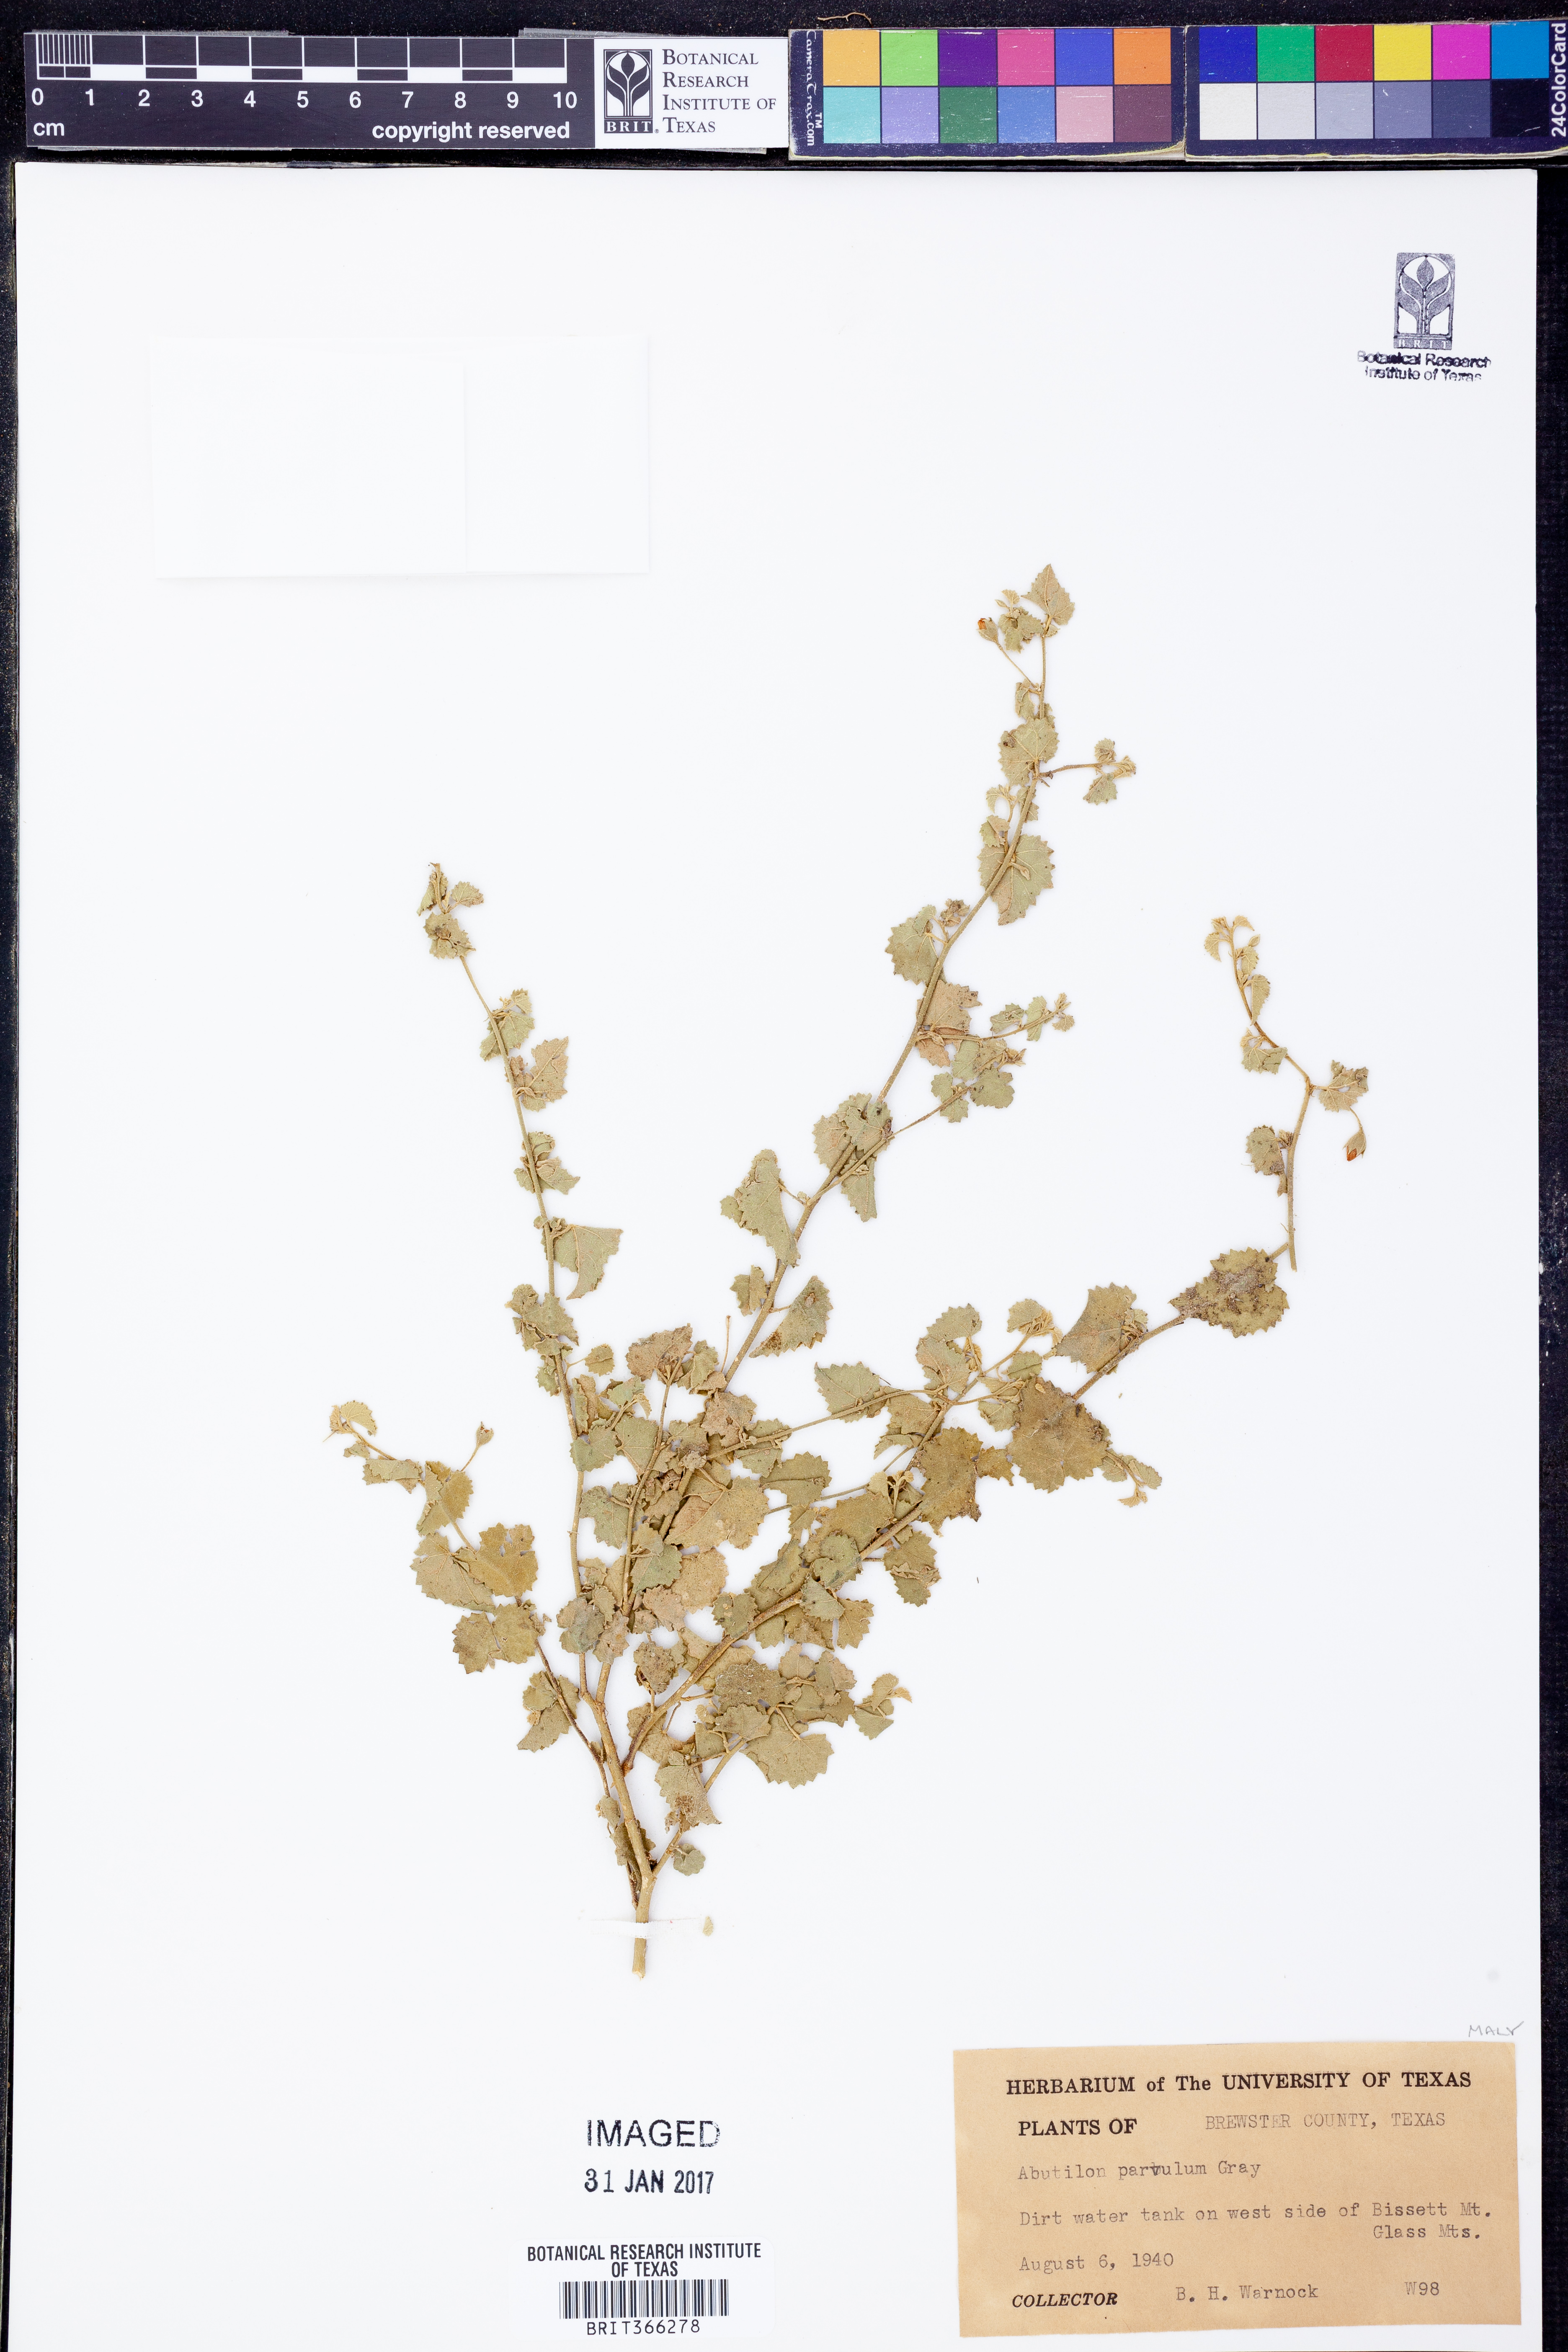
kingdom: Plantae
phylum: Tracheophyta
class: Magnoliopsida
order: Malvales
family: Malvaceae
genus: Abutilon
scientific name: Abutilon parvulum
